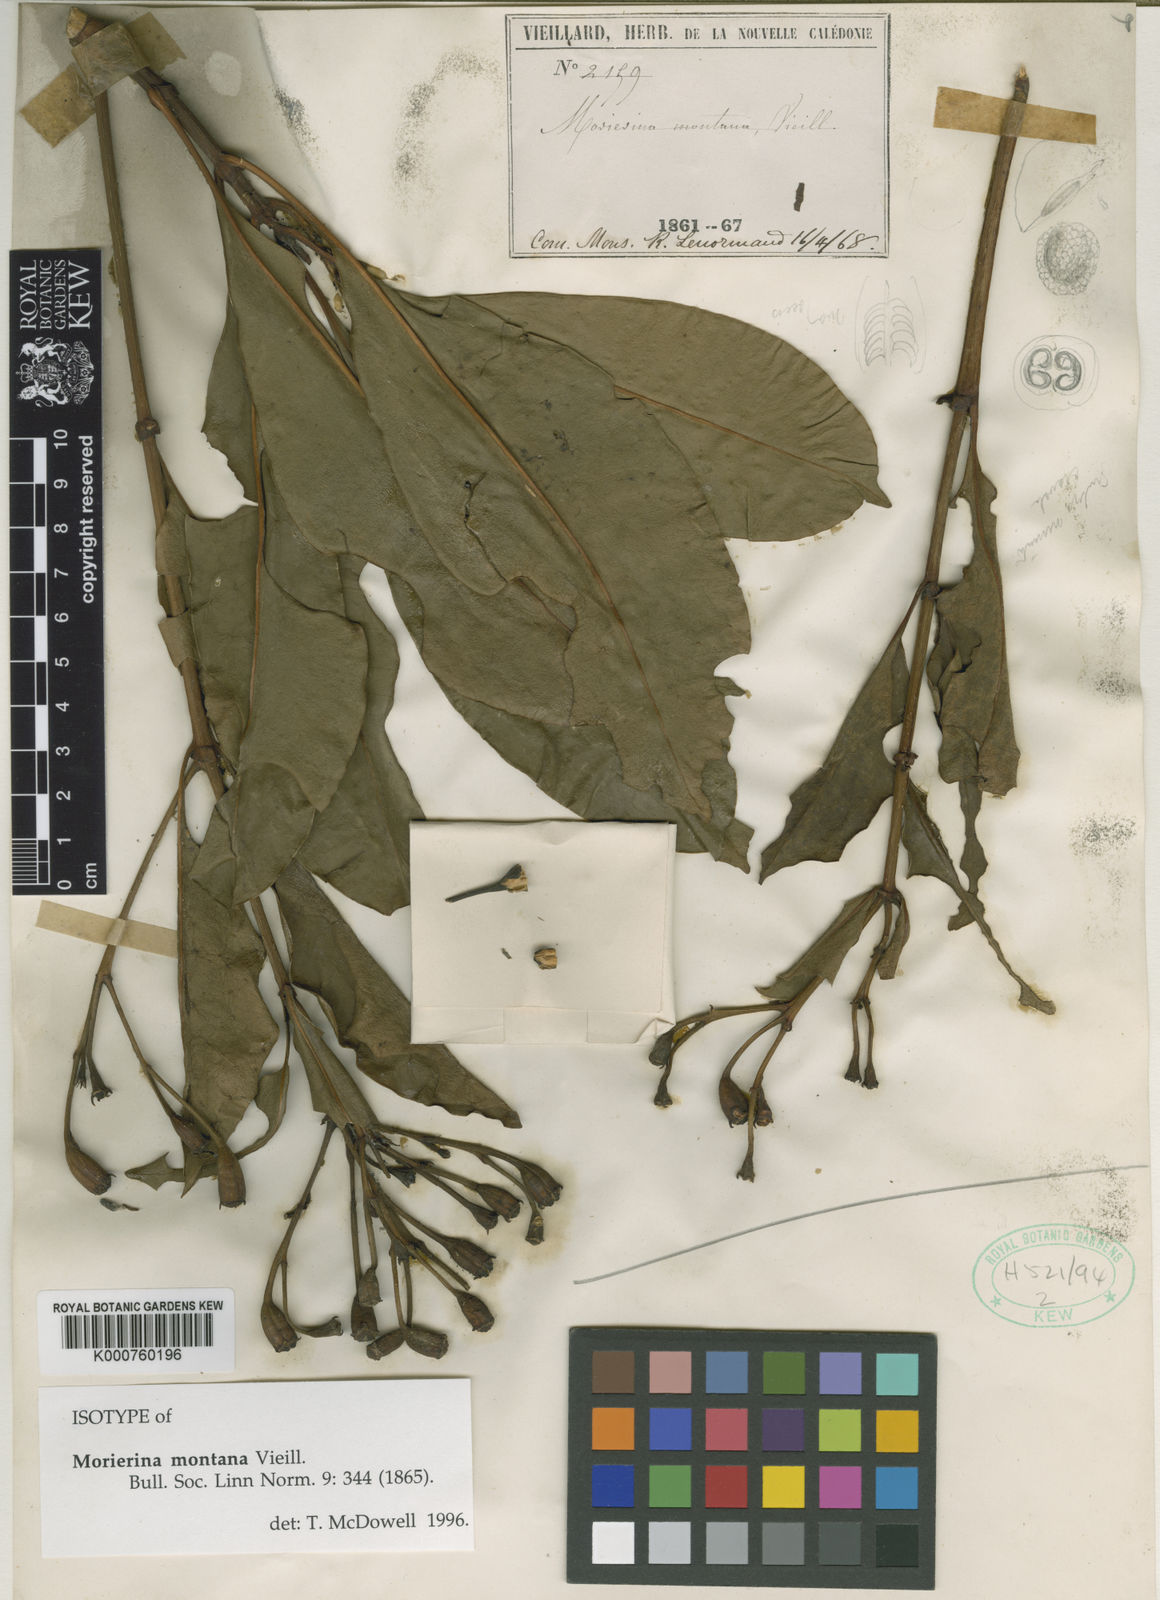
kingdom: Plantae
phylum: Tracheophyta
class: Magnoliopsida
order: Gentianales
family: Rubiaceae
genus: Thiollierea
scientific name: Thiollierea montana
